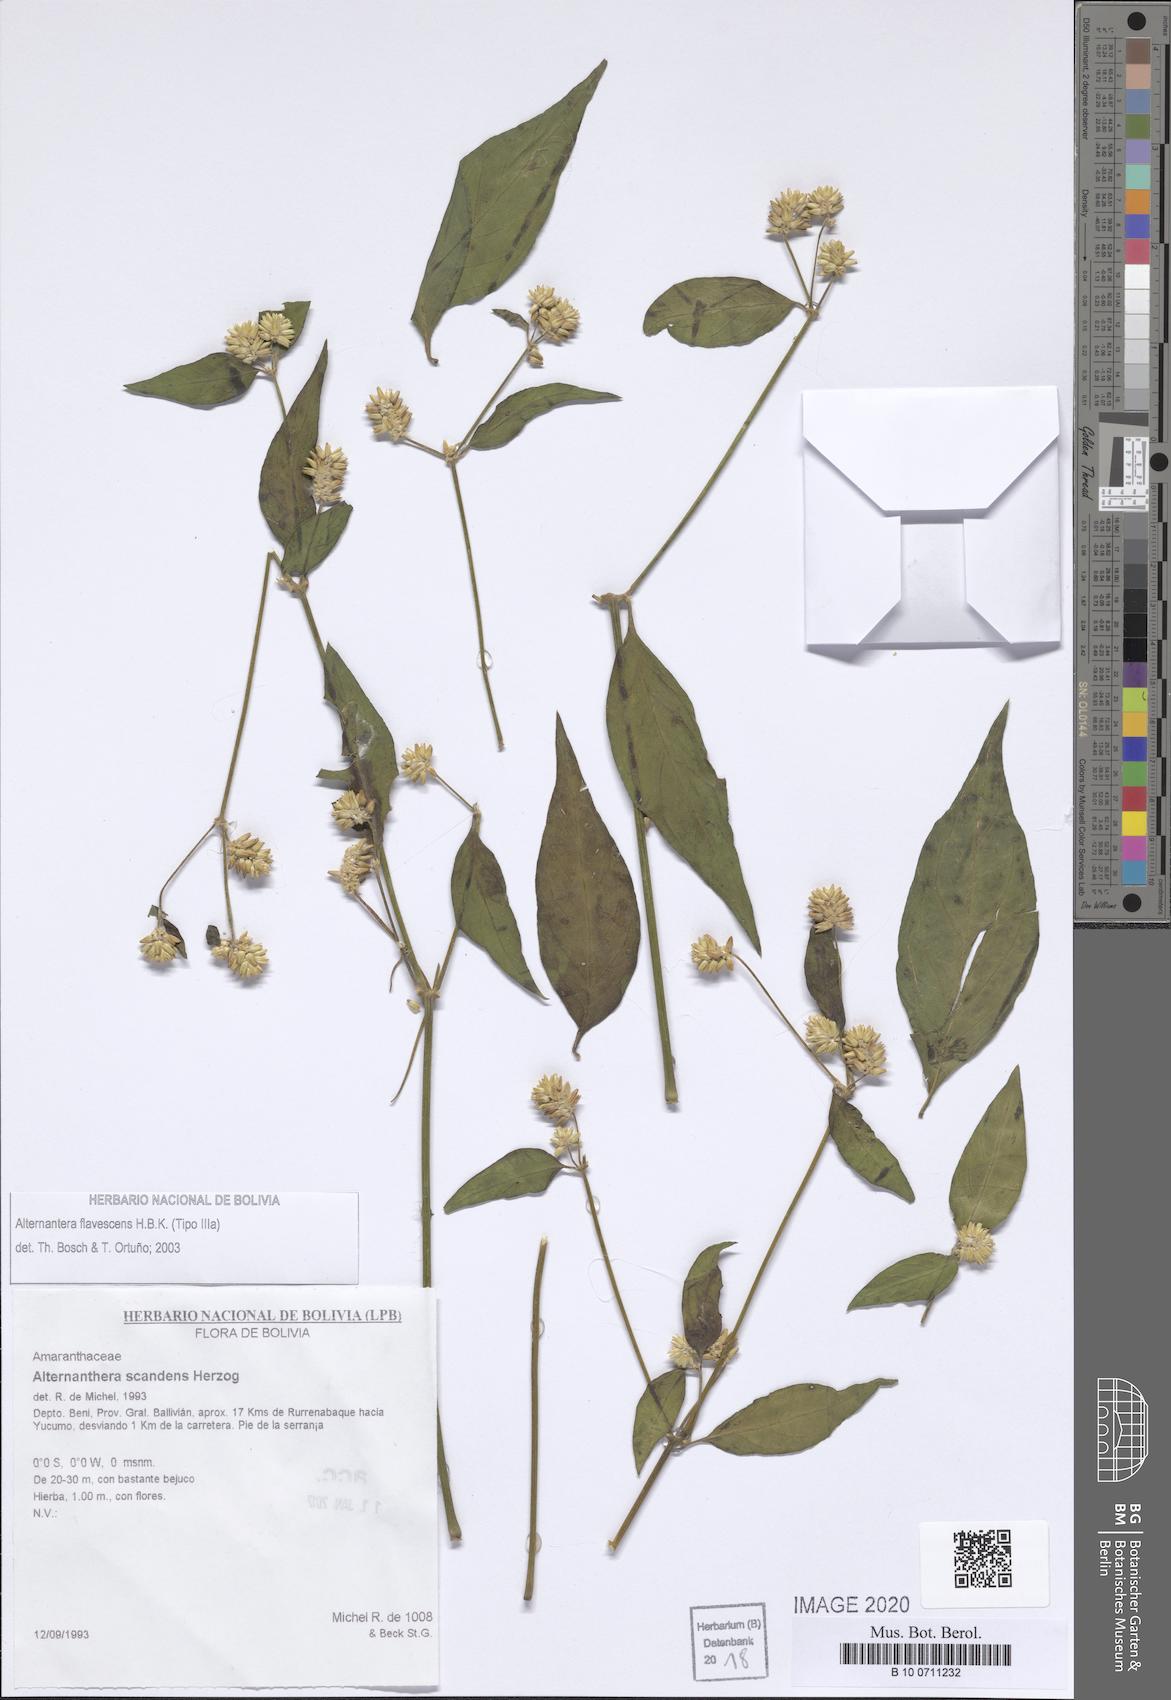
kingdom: Plantae
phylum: Tracheophyta
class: Magnoliopsida
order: Caryophyllales
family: Amaranthaceae
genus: Alternanthera
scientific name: Alternanthera flavescens
